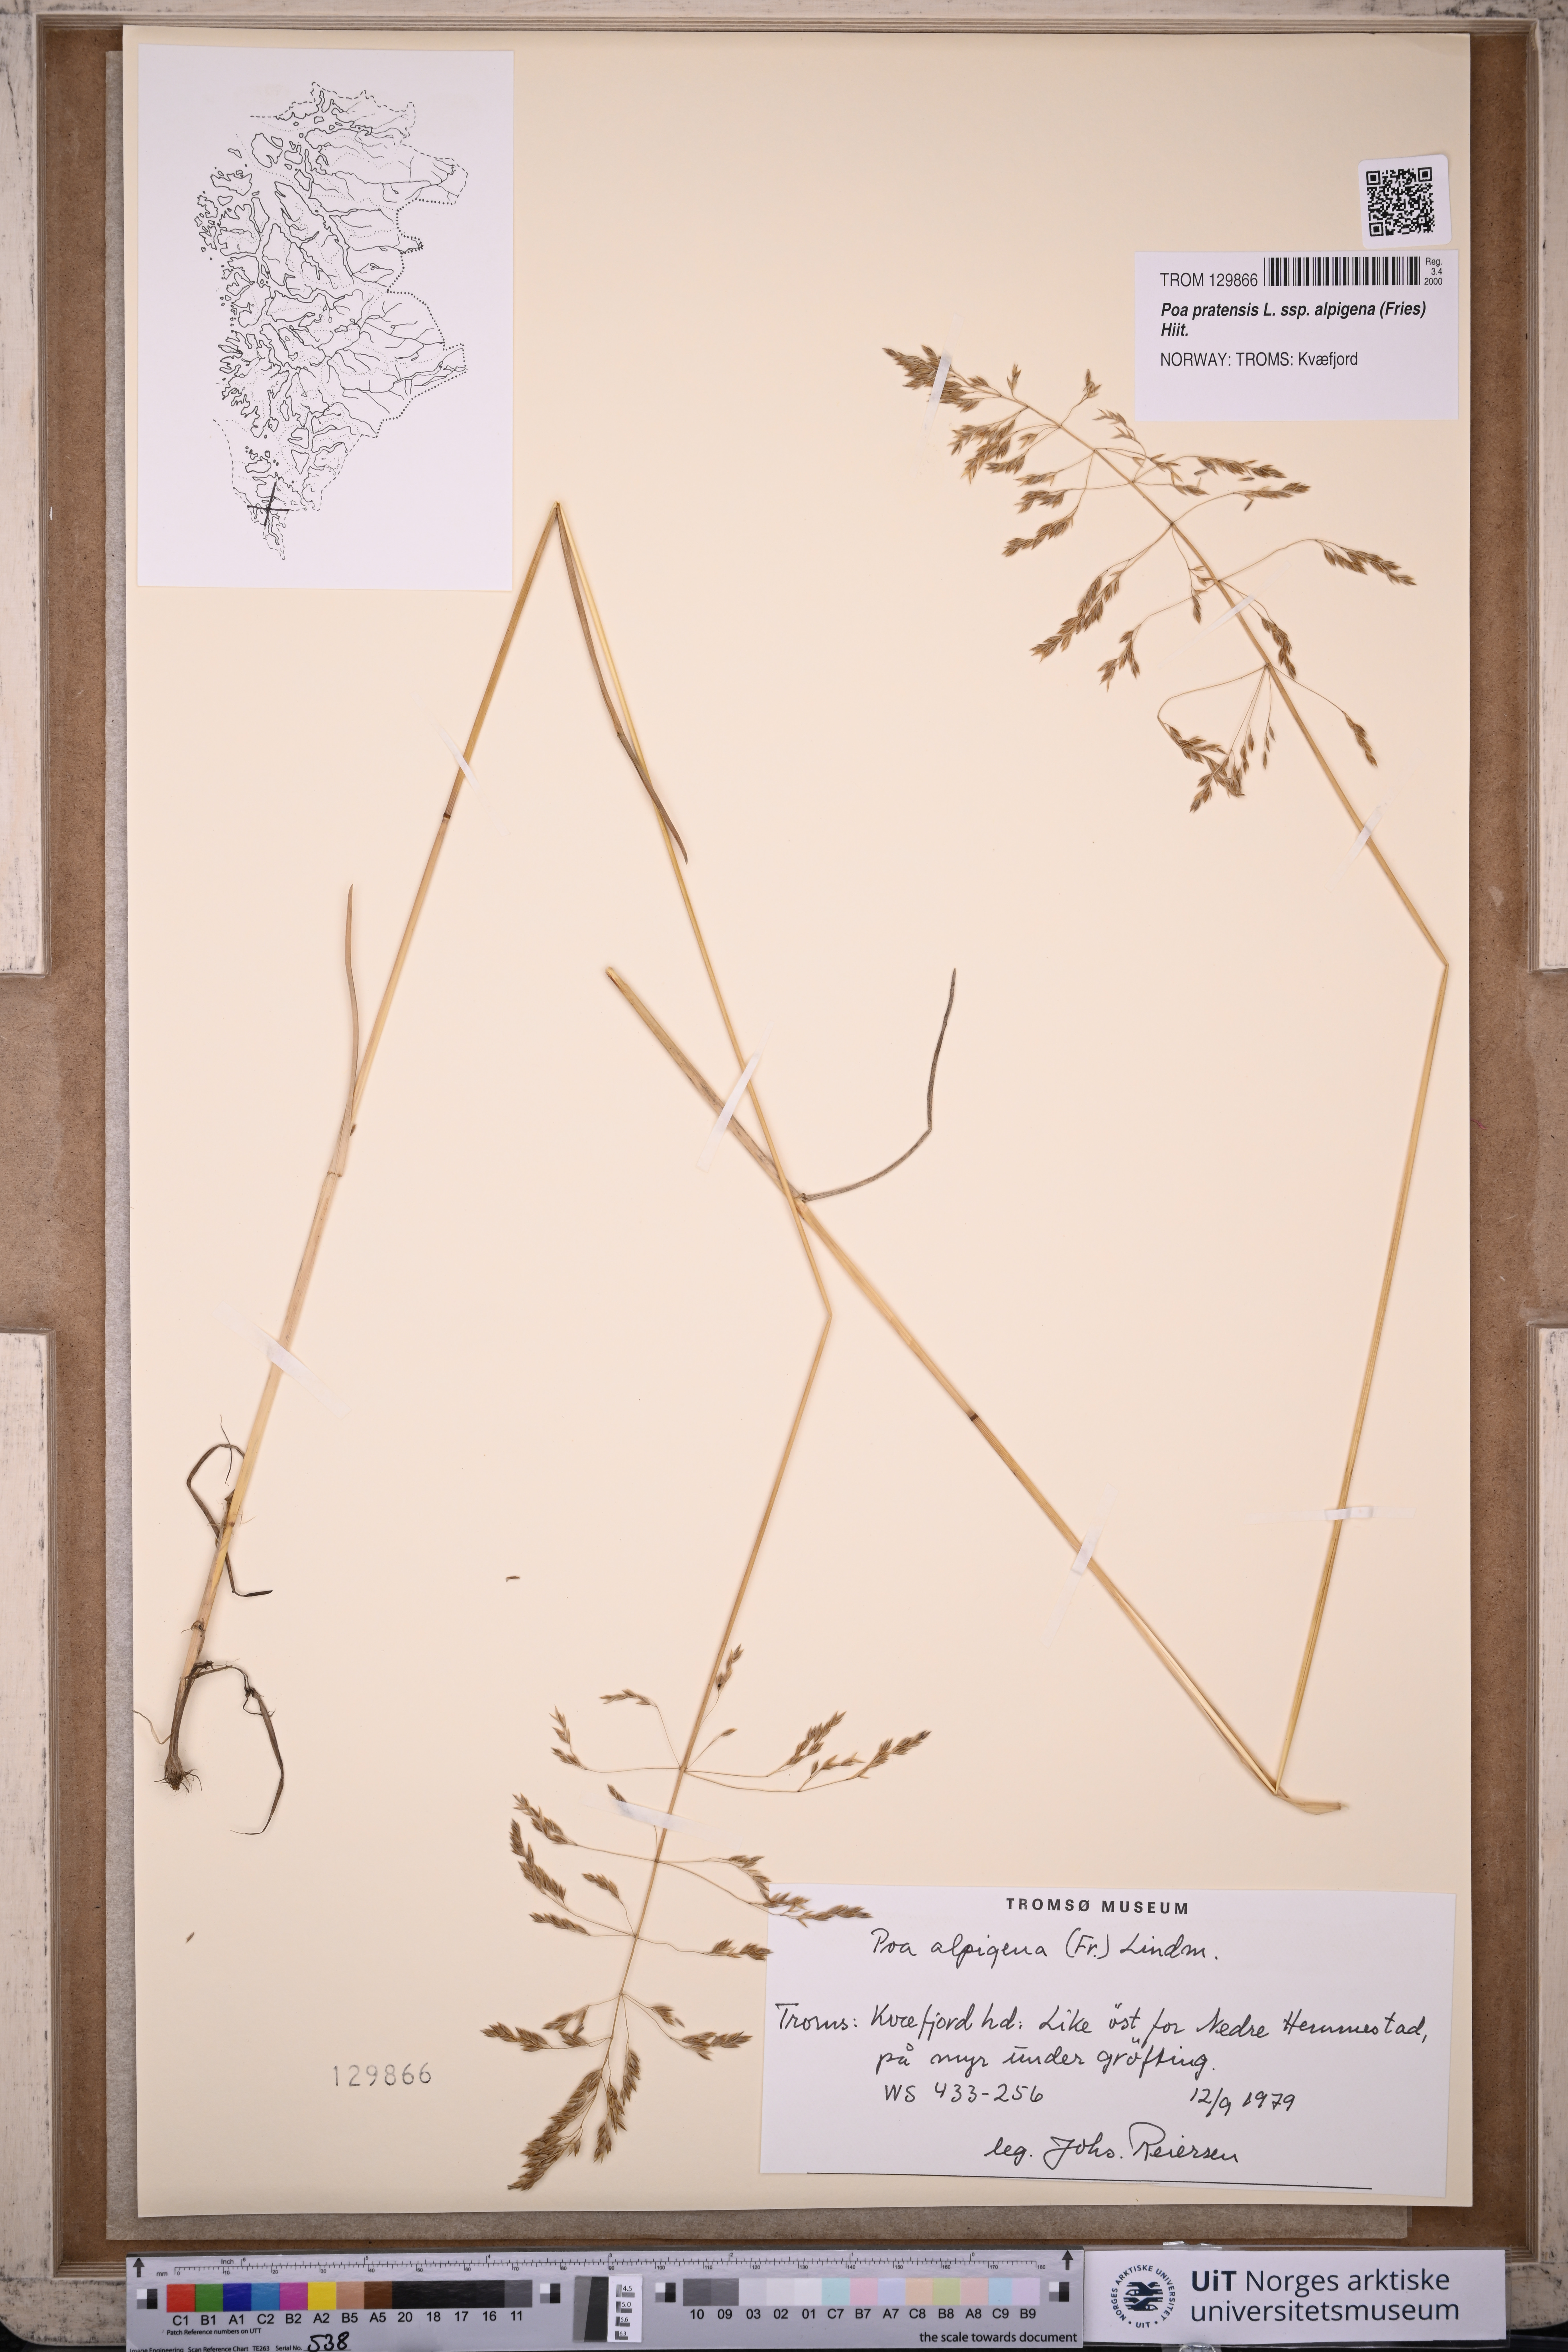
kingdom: Plantae
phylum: Tracheophyta
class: Liliopsida
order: Poales
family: Poaceae
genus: Poa
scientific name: Poa alpigena
